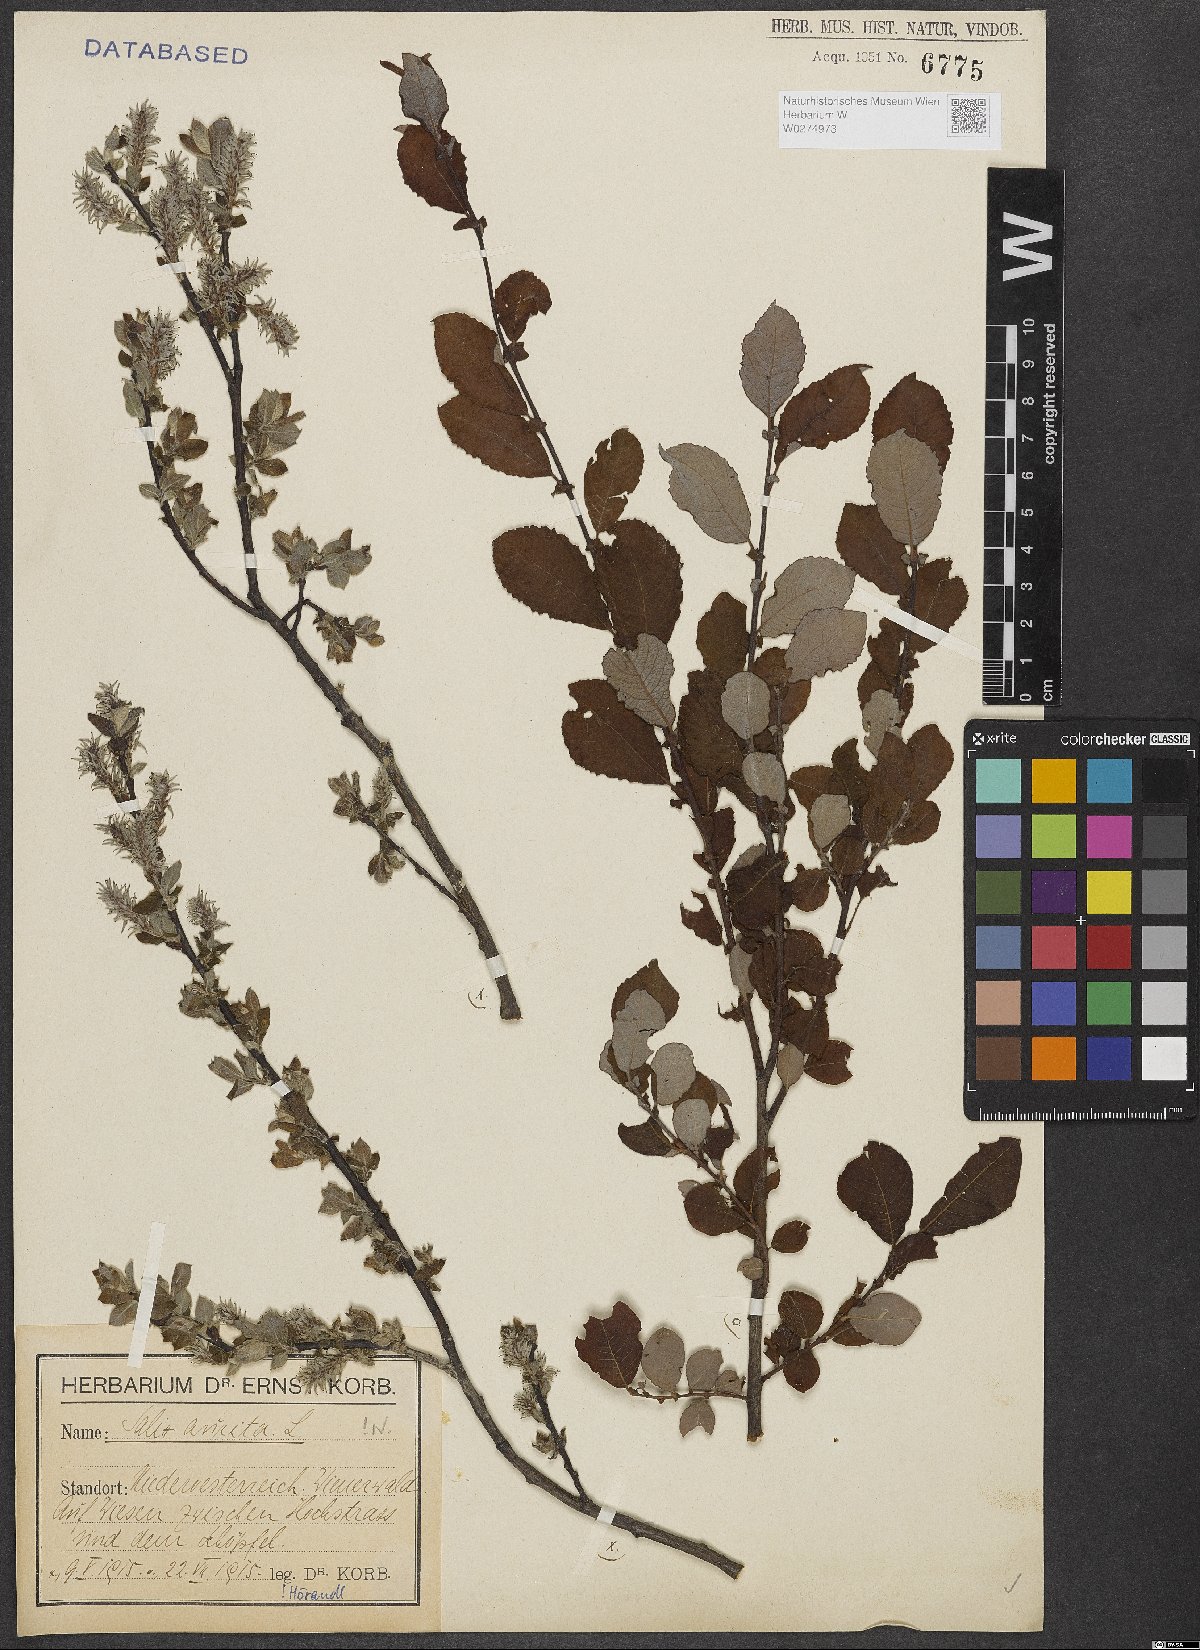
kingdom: Plantae
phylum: Tracheophyta
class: Magnoliopsida
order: Malpighiales
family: Salicaceae
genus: Salix
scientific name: Salix aurita
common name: Eared willow
